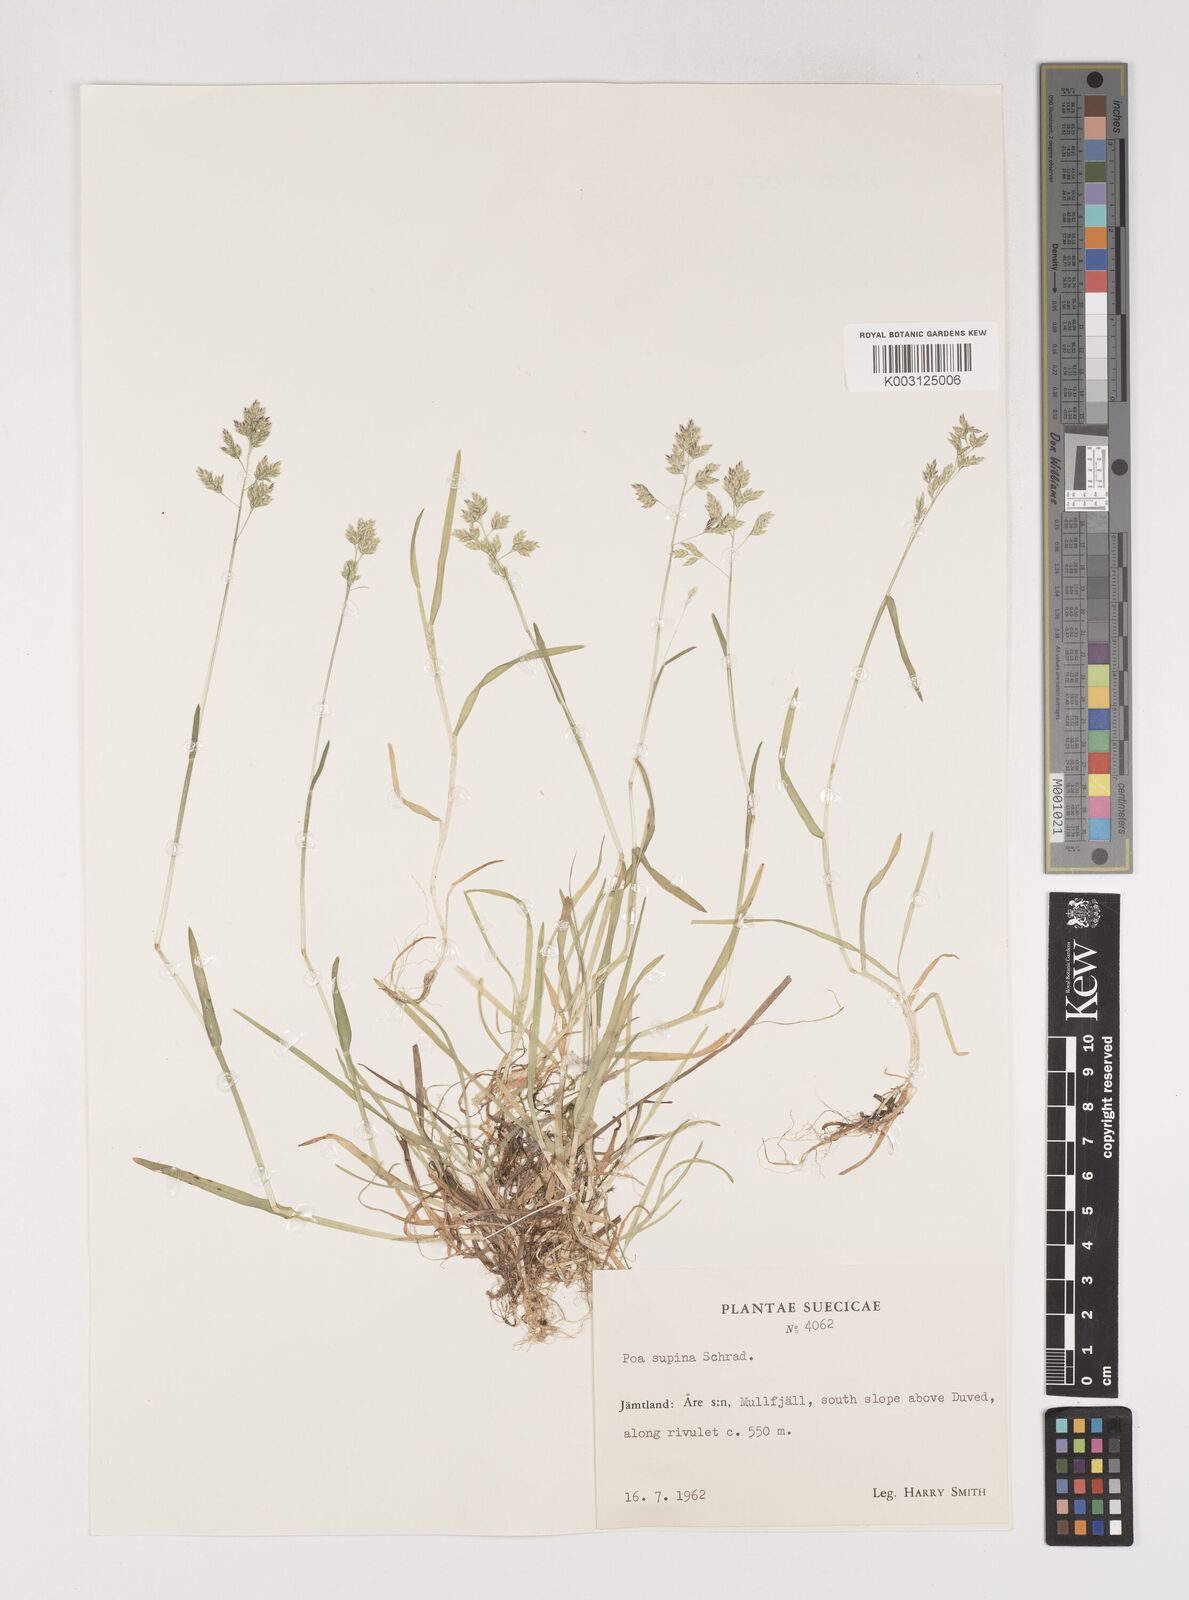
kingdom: Plantae
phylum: Tracheophyta
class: Liliopsida
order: Poales
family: Poaceae
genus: Poa
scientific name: Poa supina
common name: Supina bluegrass
